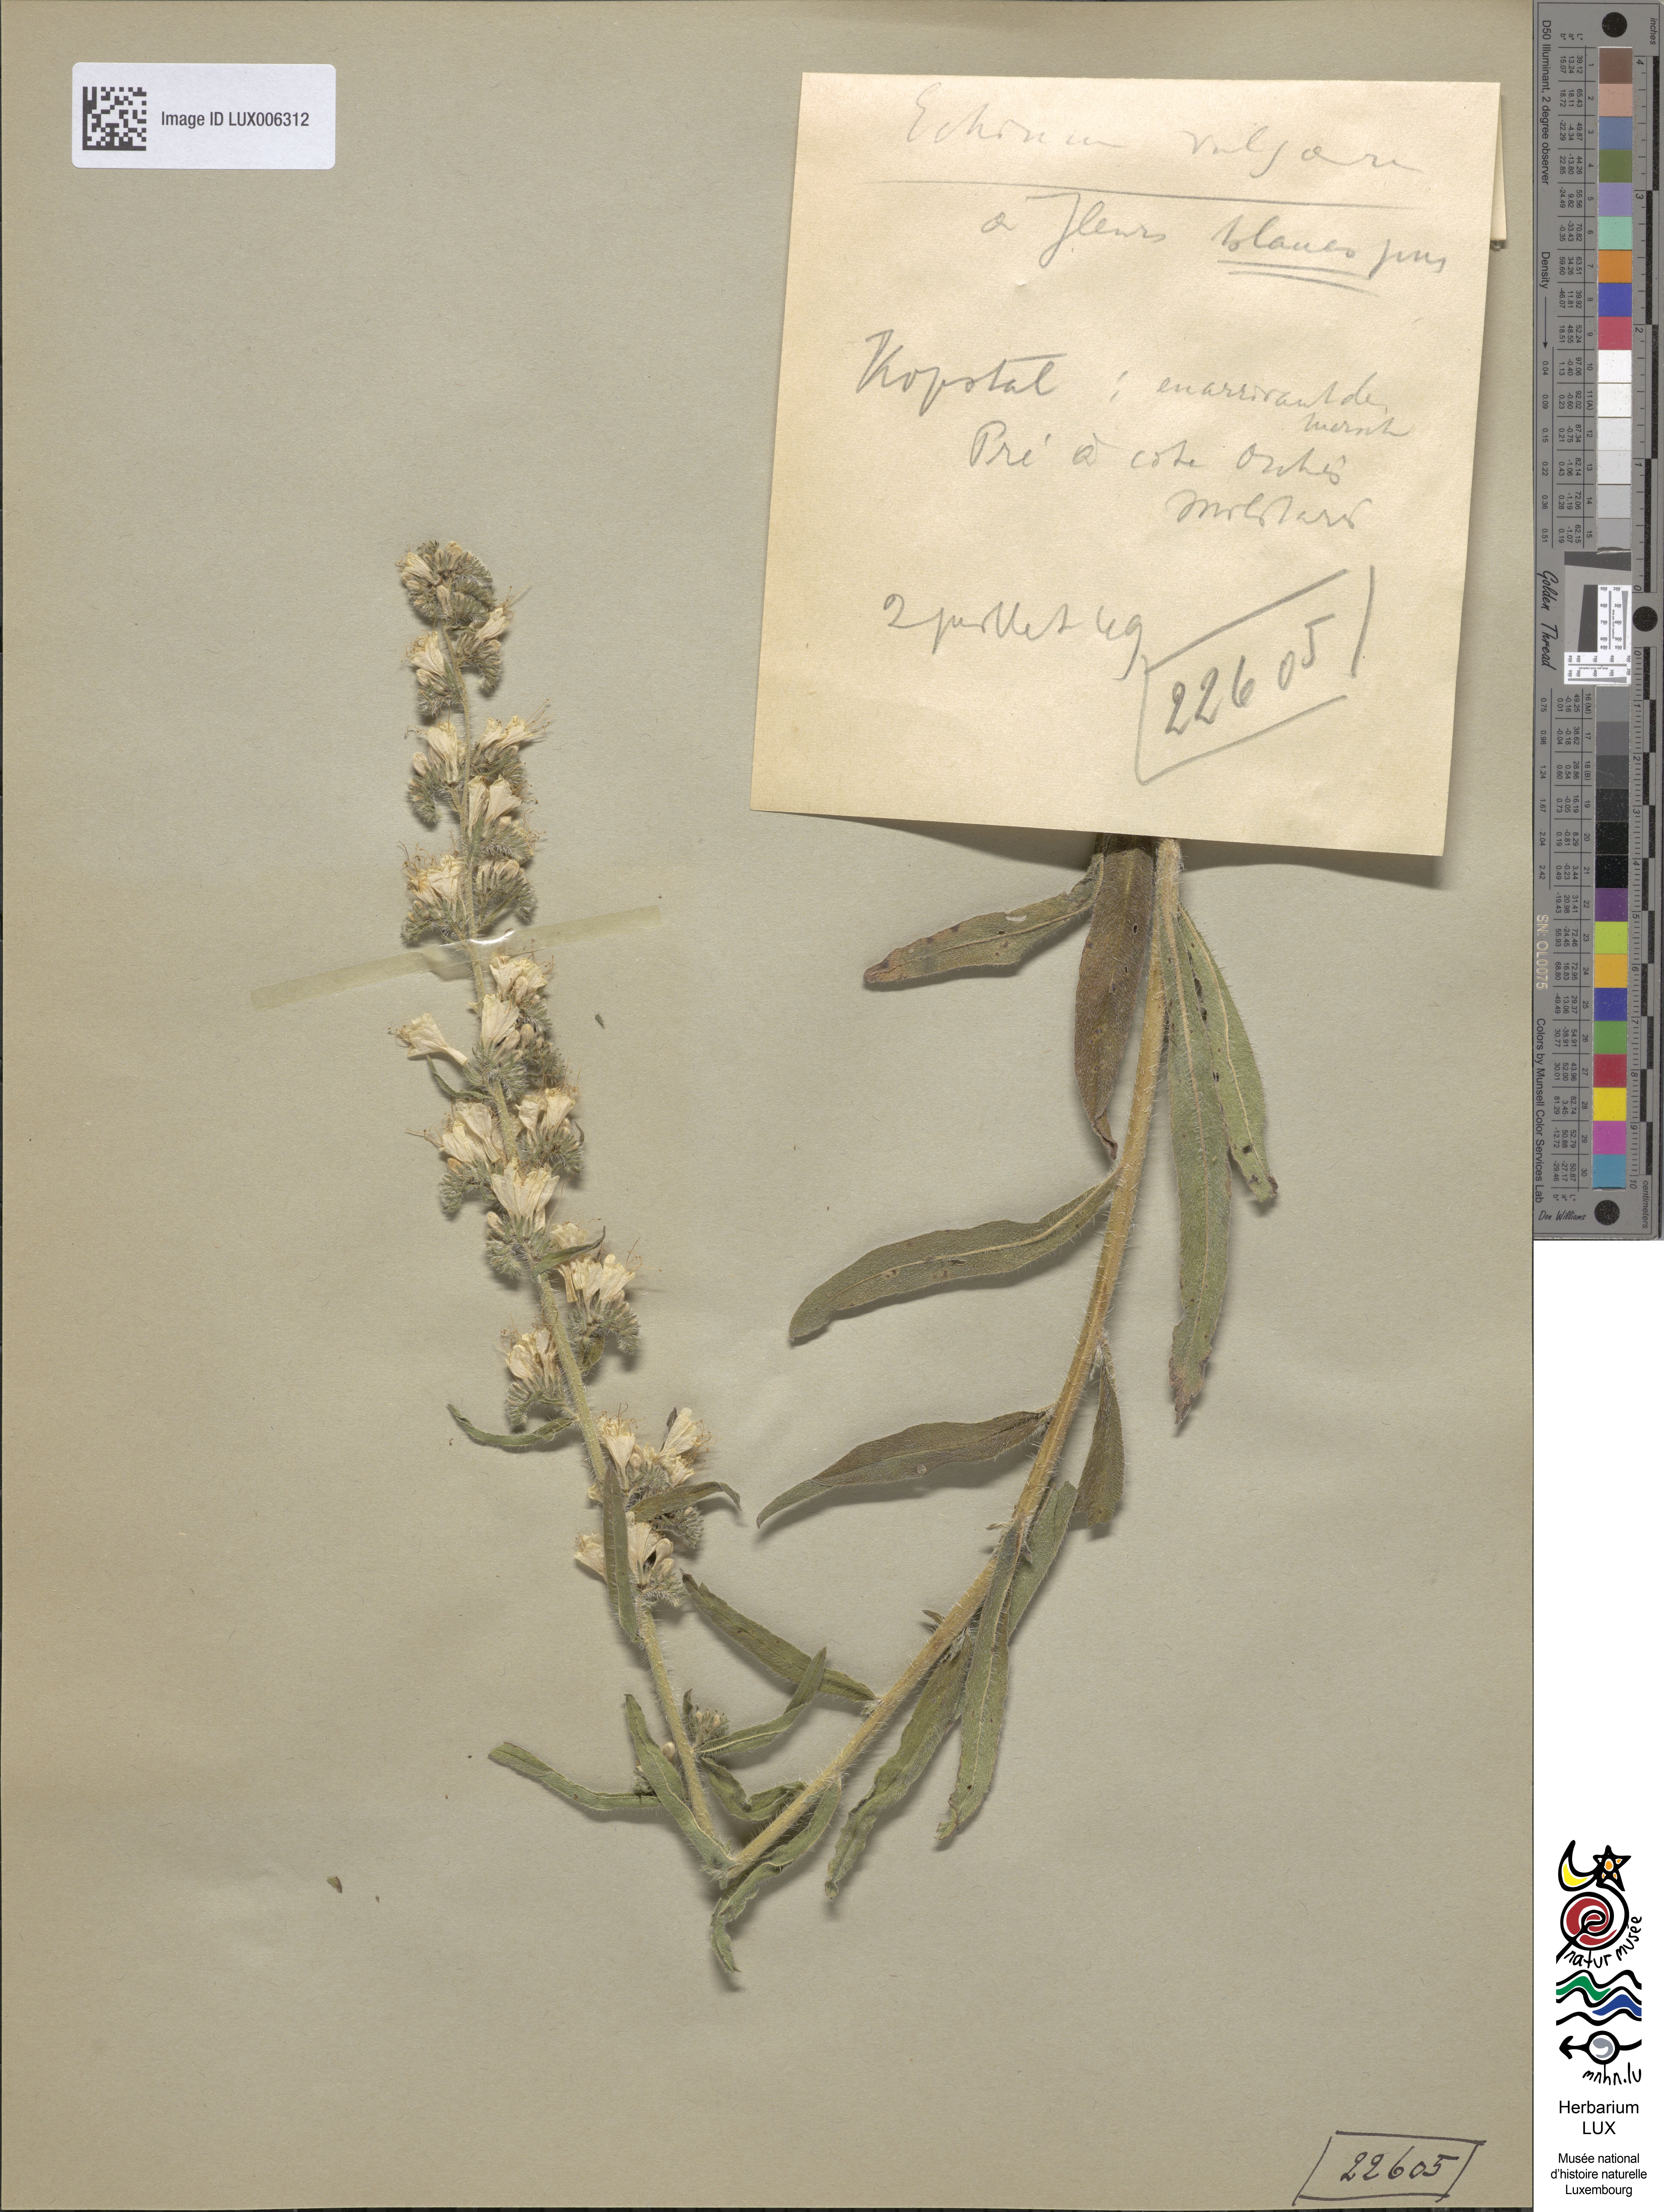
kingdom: Plantae
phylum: Tracheophyta
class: Magnoliopsida
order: Boraginales
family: Boraginaceae
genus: Echium
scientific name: Echium vulgare
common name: Common viper's bugloss
